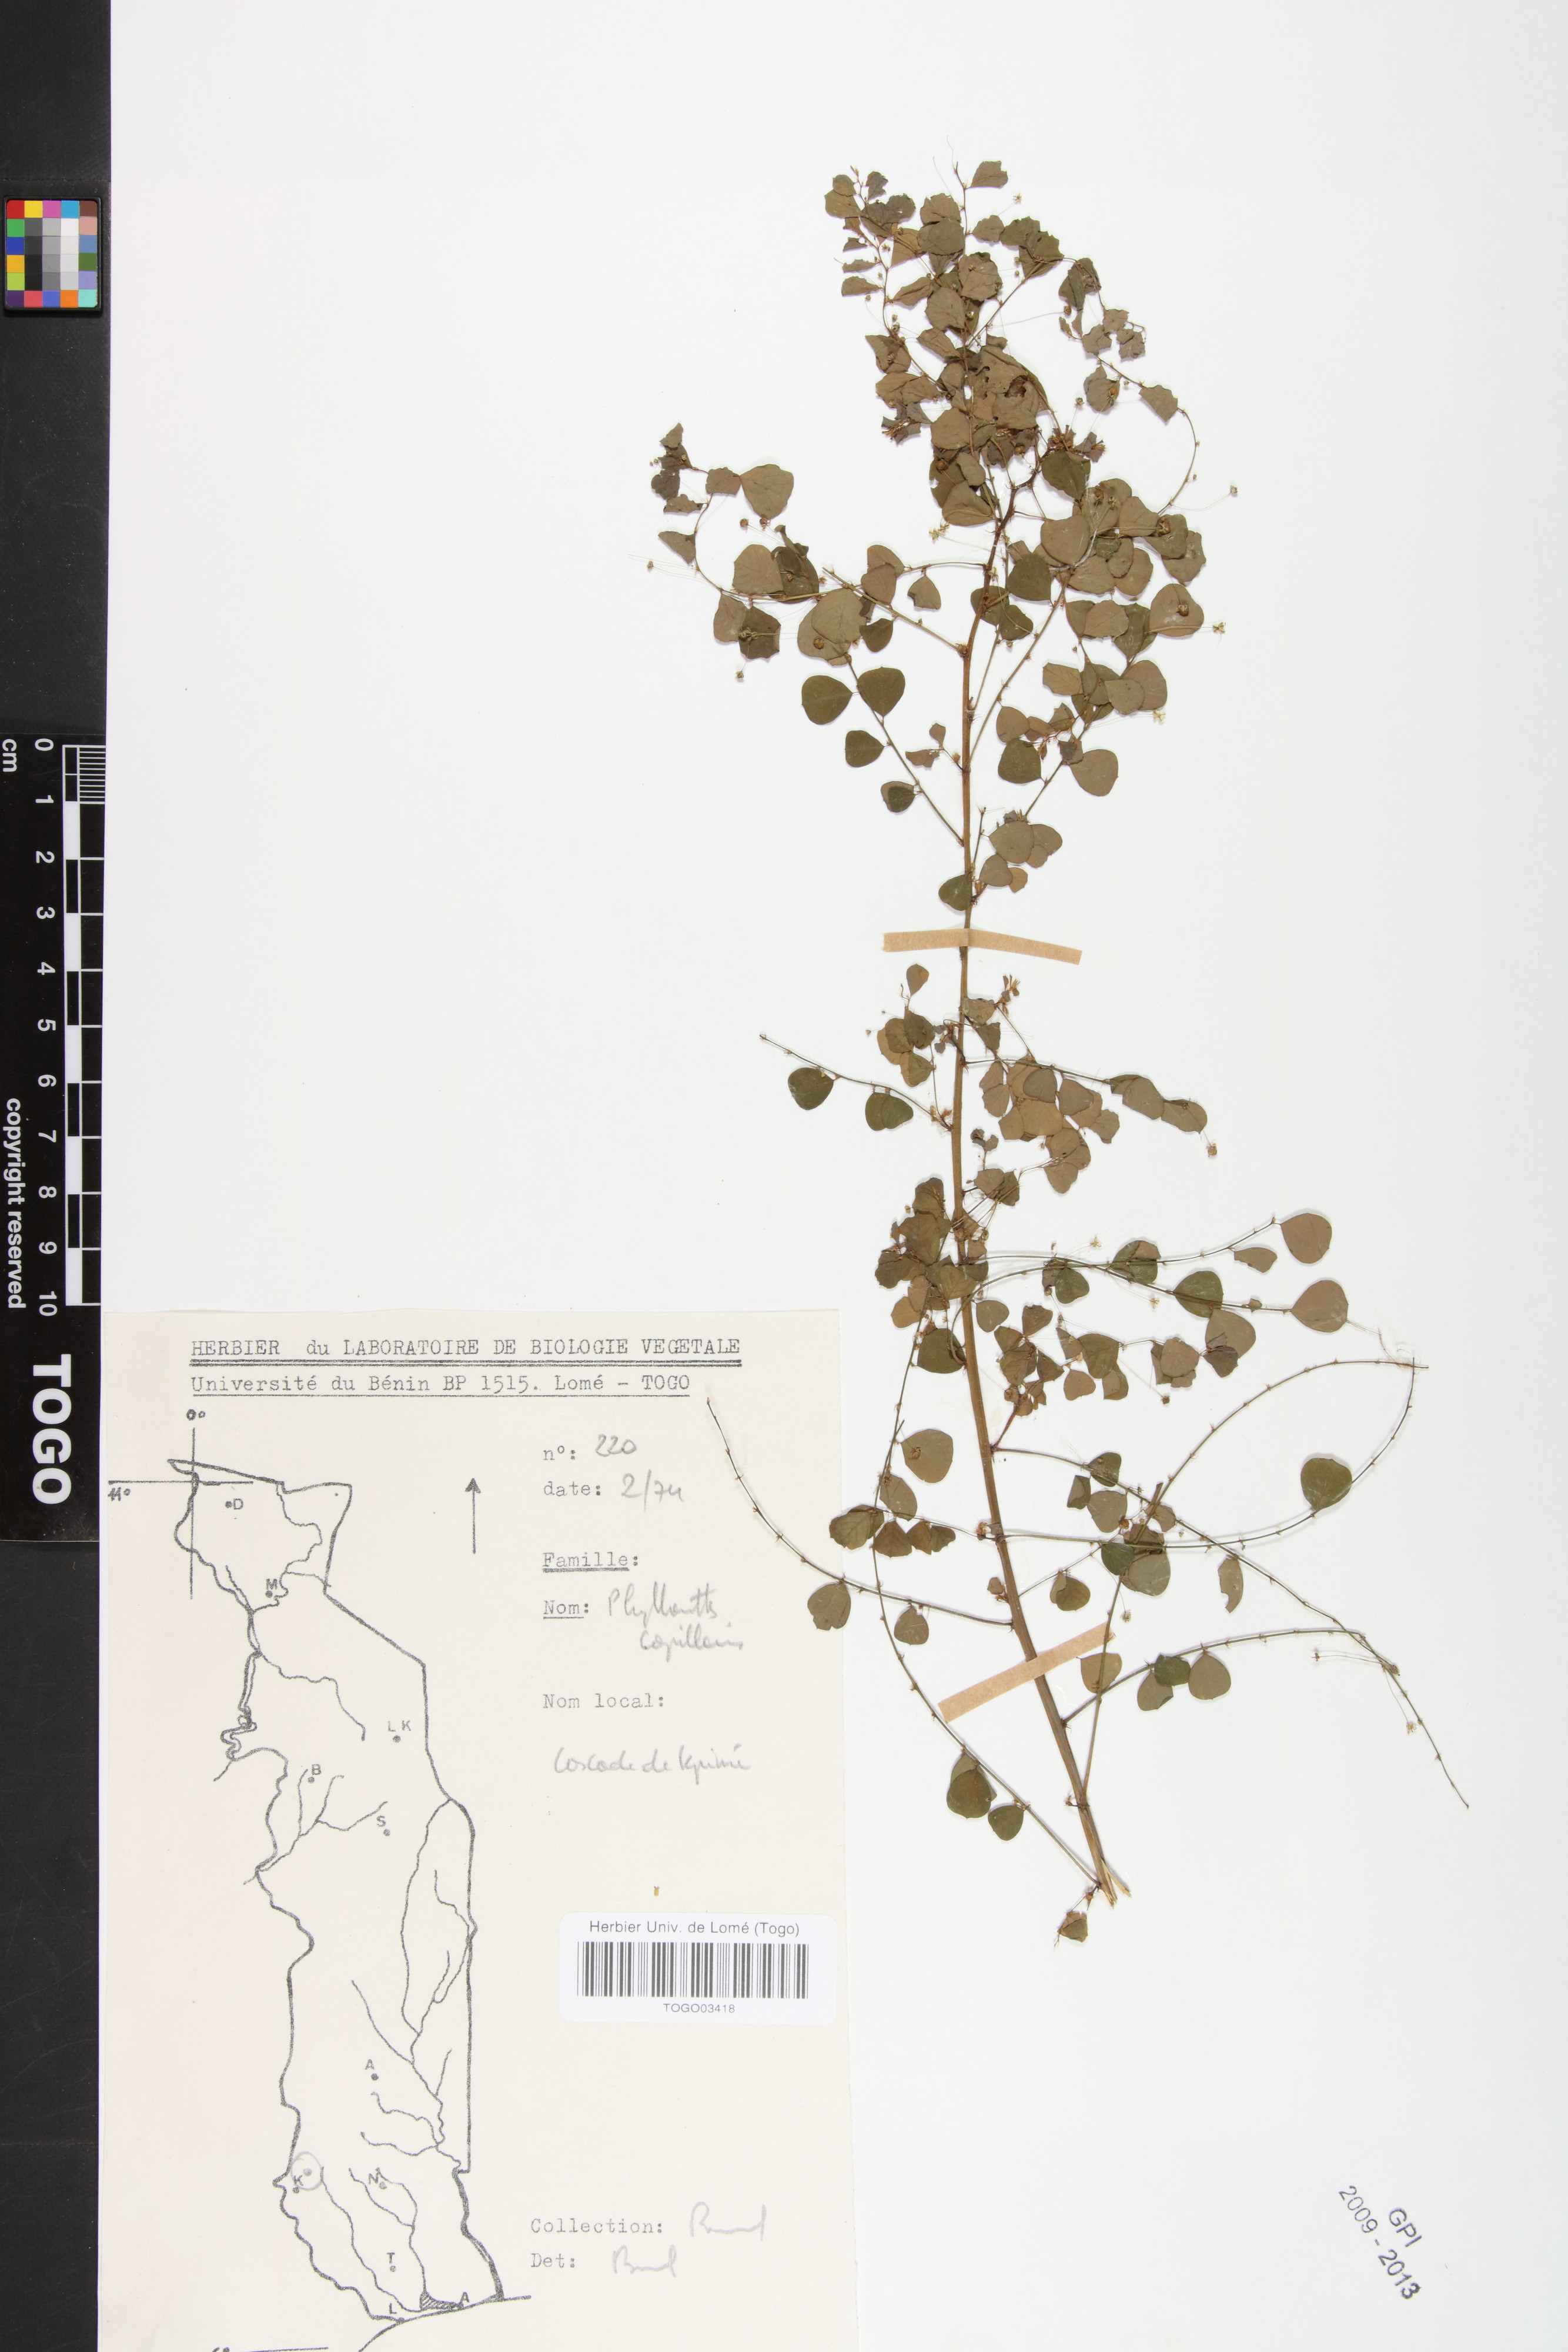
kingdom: Plantae
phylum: Tracheophyta
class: Magnoliopsida
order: Malpighiales
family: Phyllanthaceae
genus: Phyllanthus
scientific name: Phyllanthus nummulariifolius
